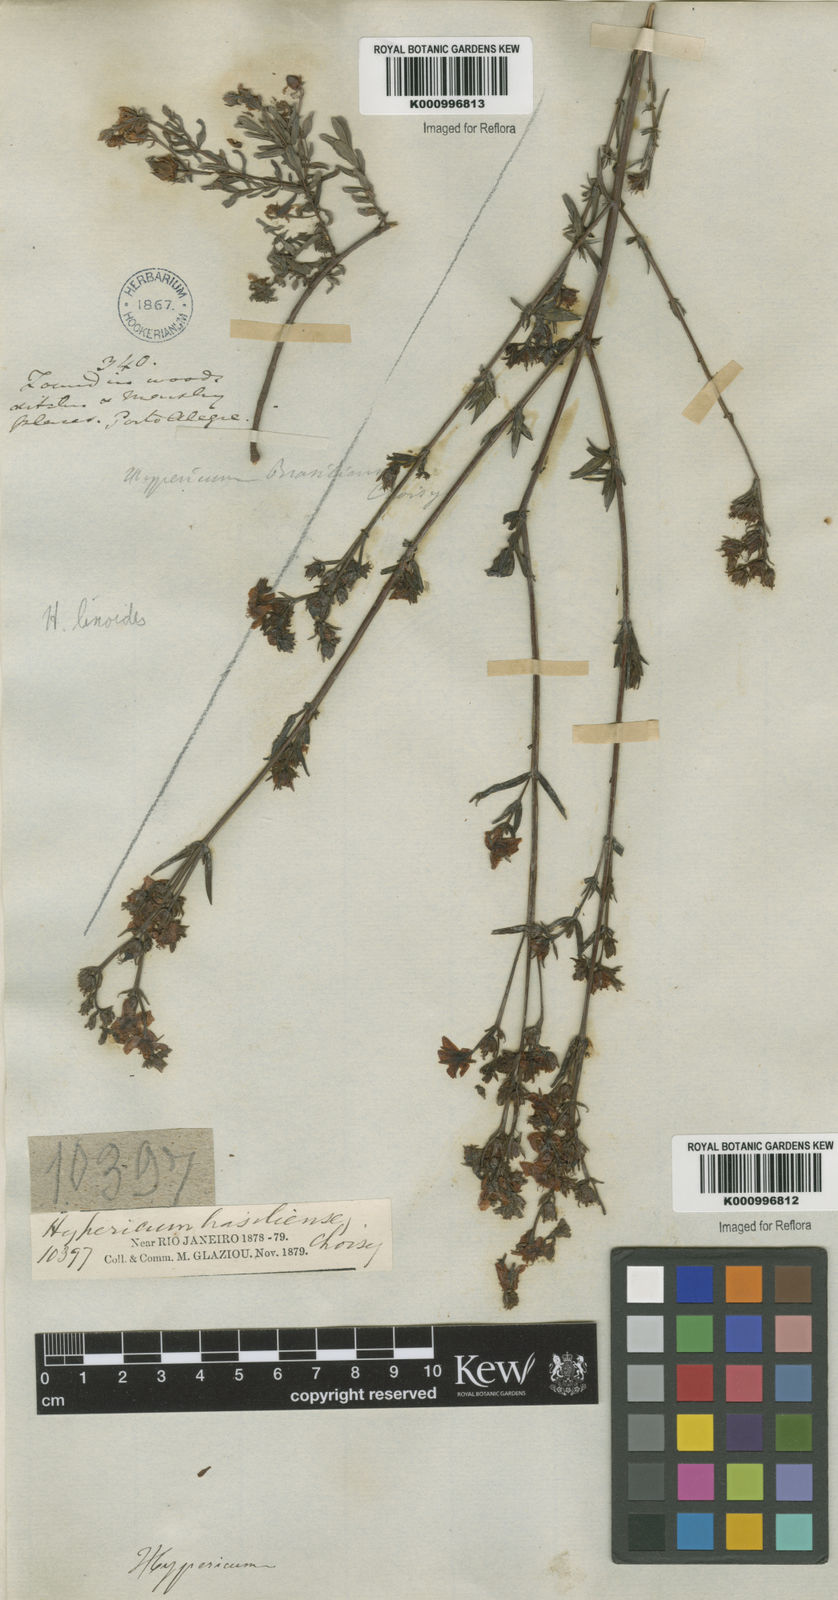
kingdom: Plantae
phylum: Tracheophyta
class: Magnoliopsida
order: Malpighiales
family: Hypericaceae
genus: Hypericum
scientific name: Hypericum brasiliense
